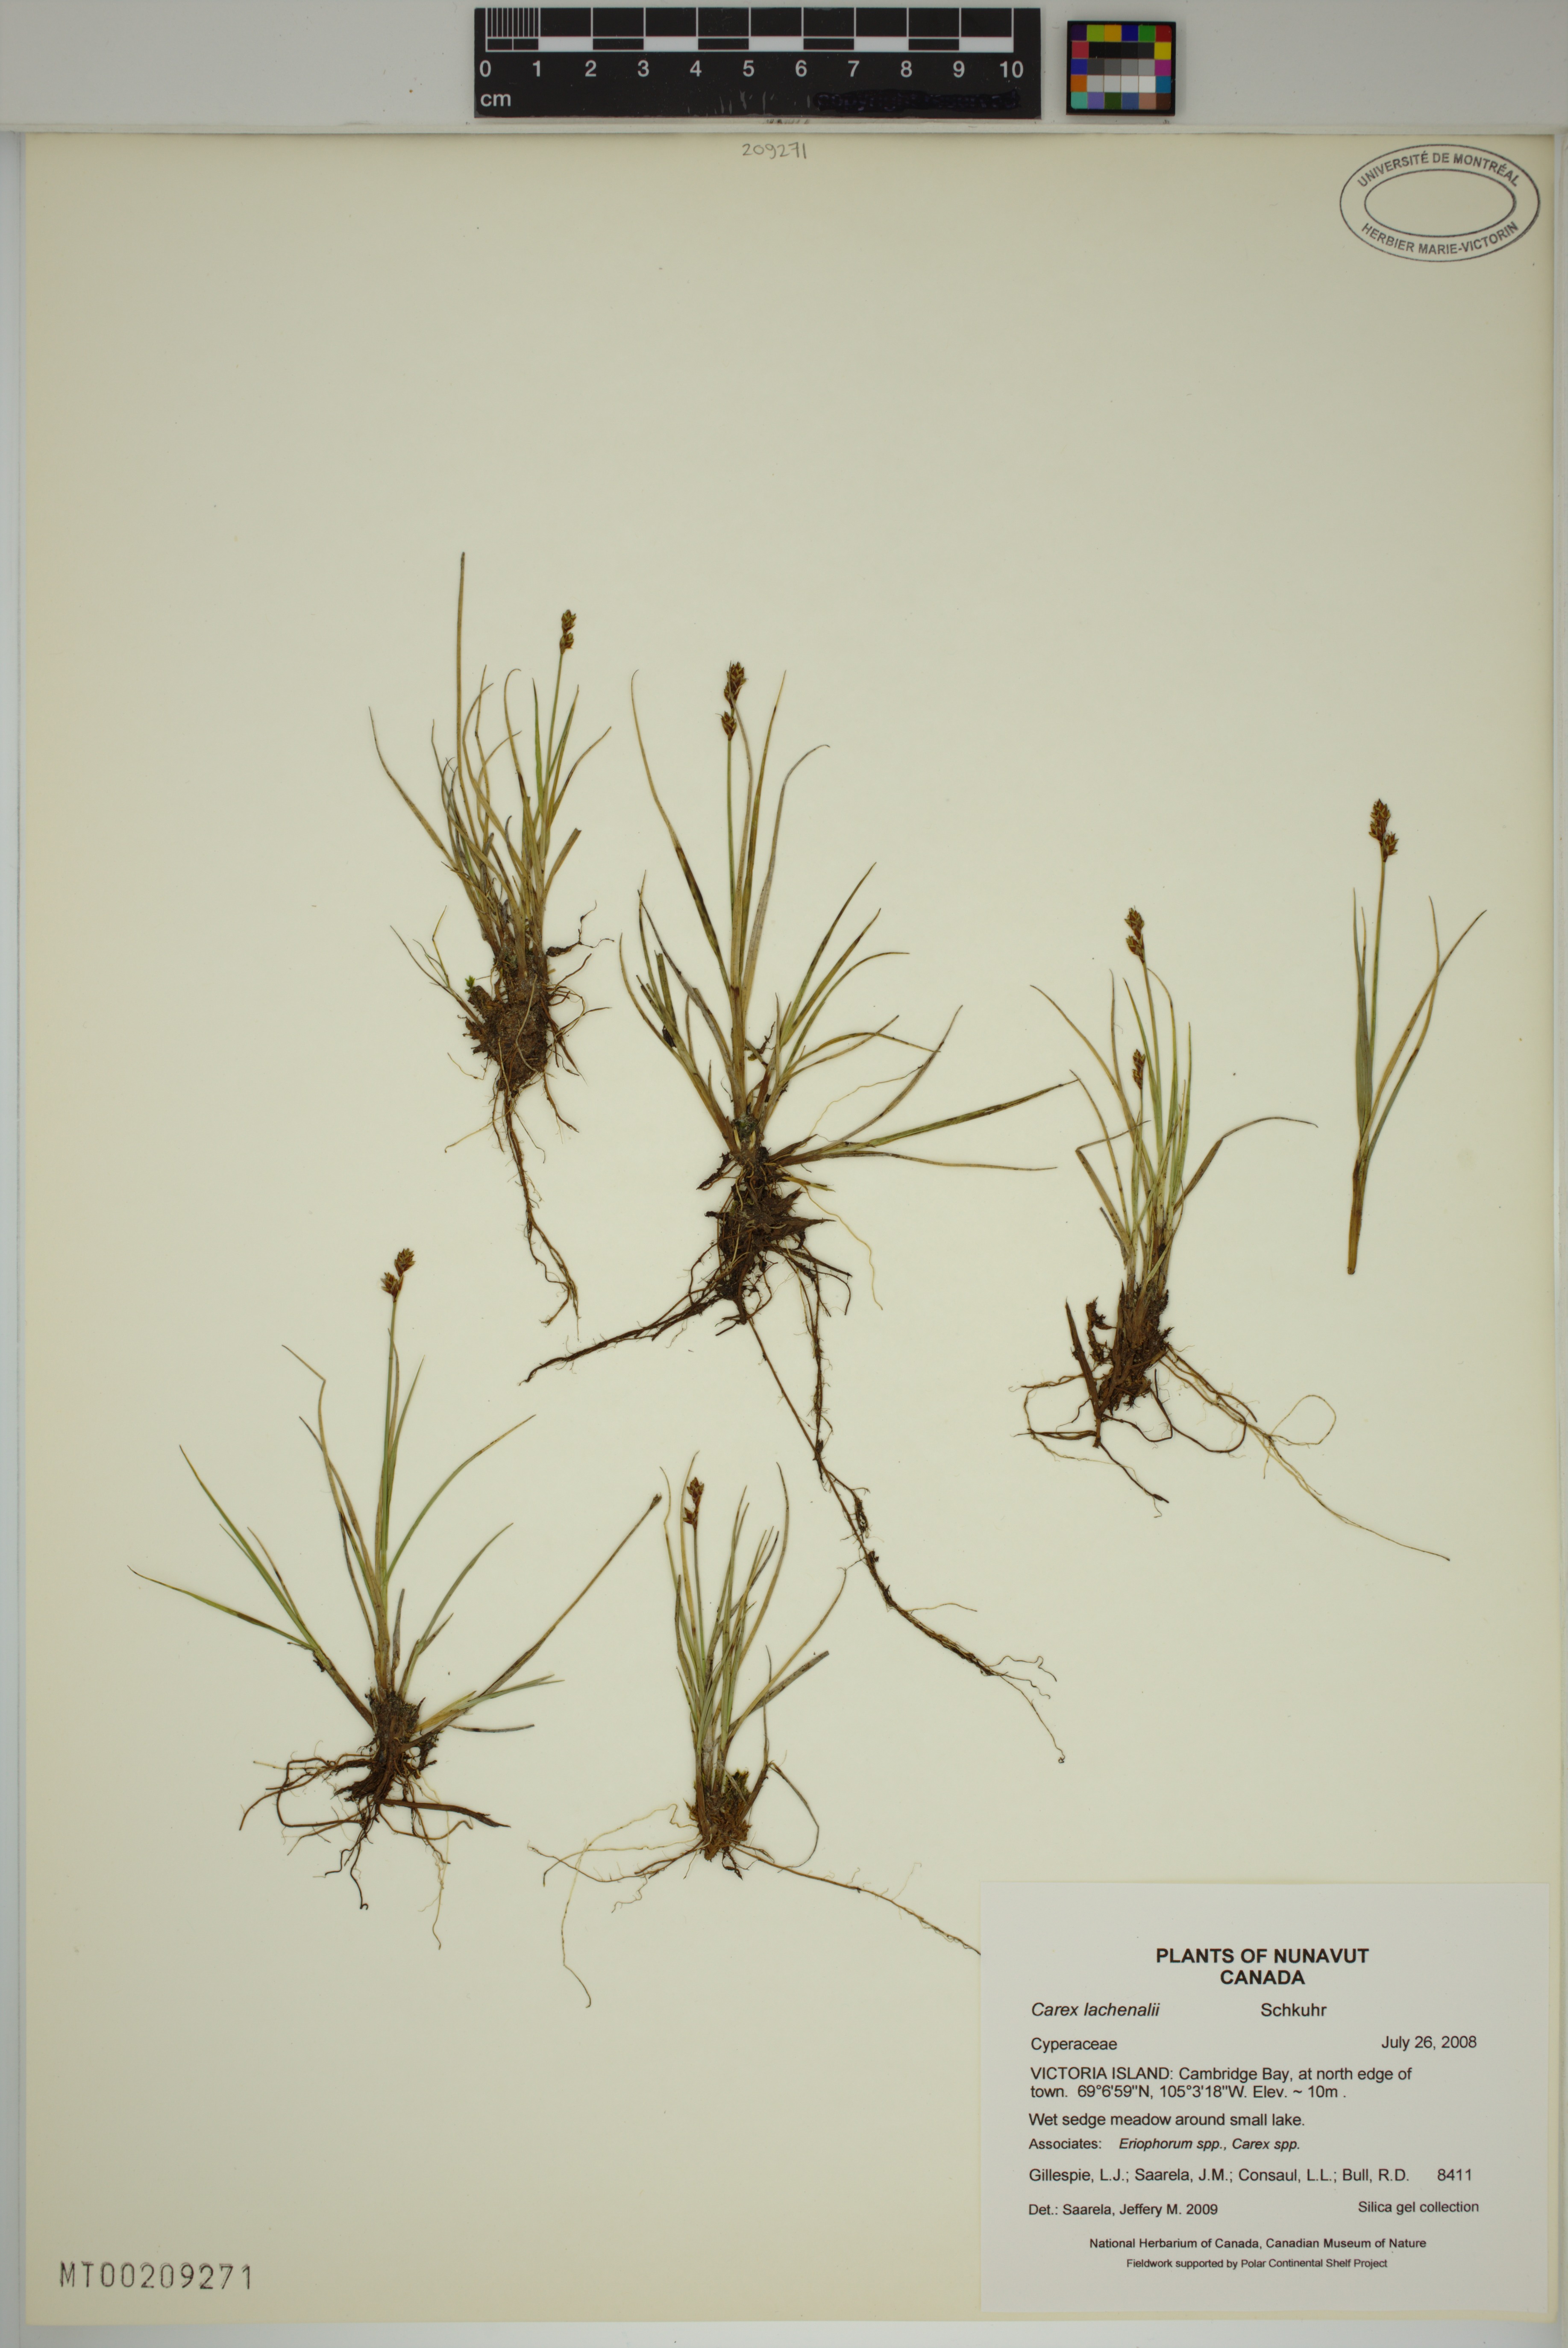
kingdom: Plantae
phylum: Tracheophyta
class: Liliopsida
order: Poales
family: Cyperaceae
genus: Carex
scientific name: Carex lachenalii
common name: Hare's-foot sedge
